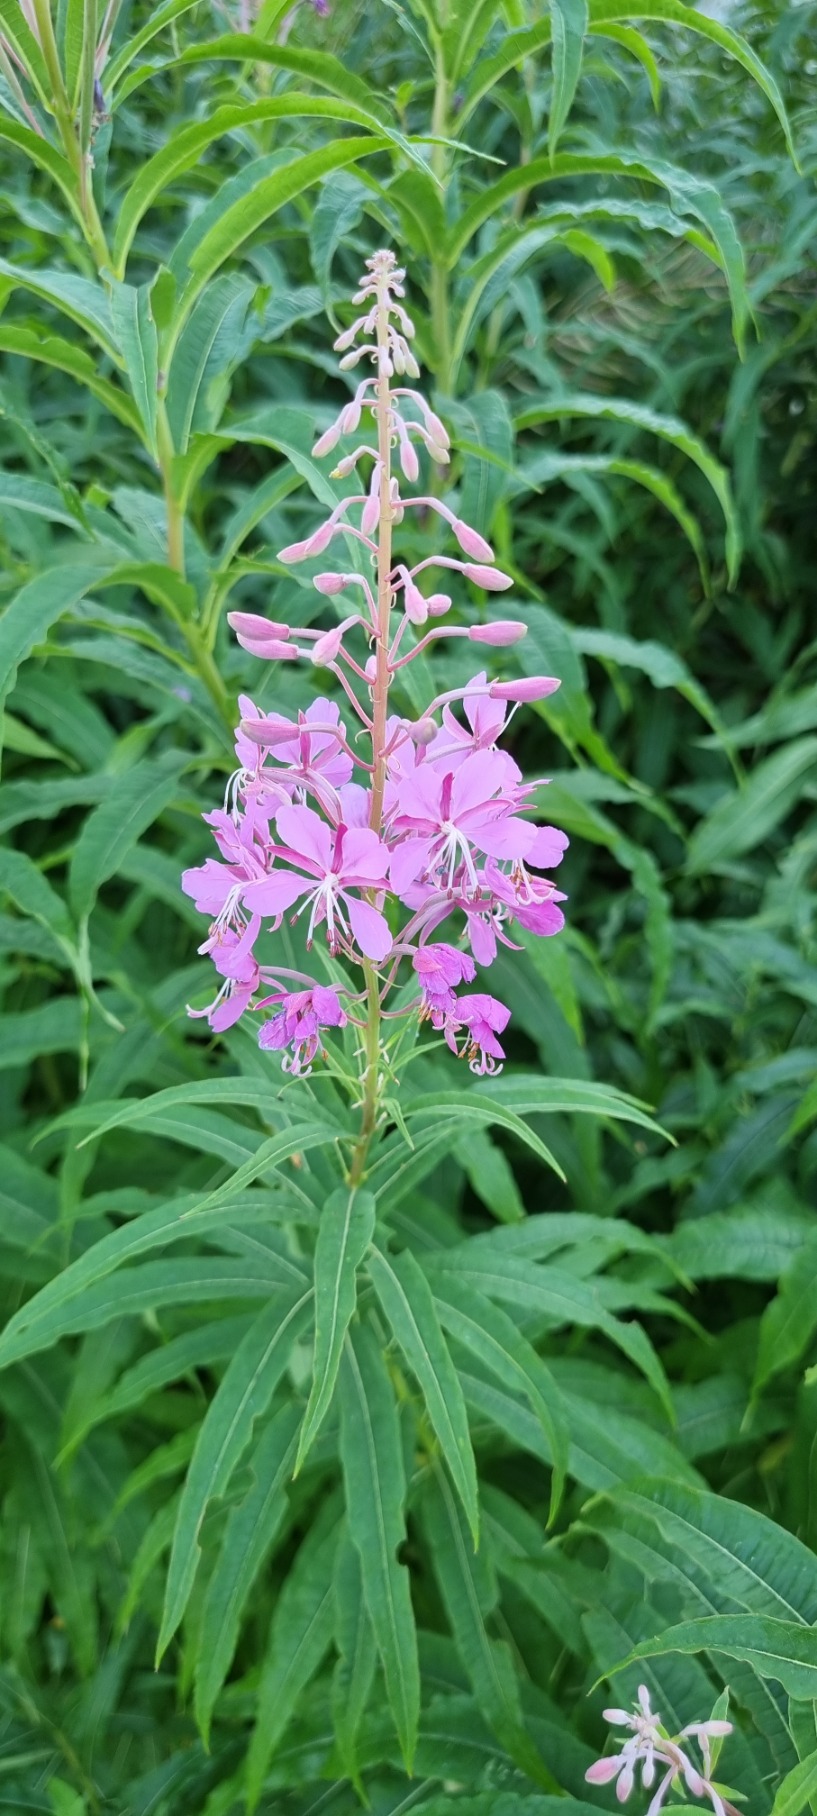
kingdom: Plantae
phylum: Tracheophyta
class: Magnoliopsida
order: Myrtales
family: Onagraceae
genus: Chamaenerion
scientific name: Chamaenerion angustifolium
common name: Gederams
